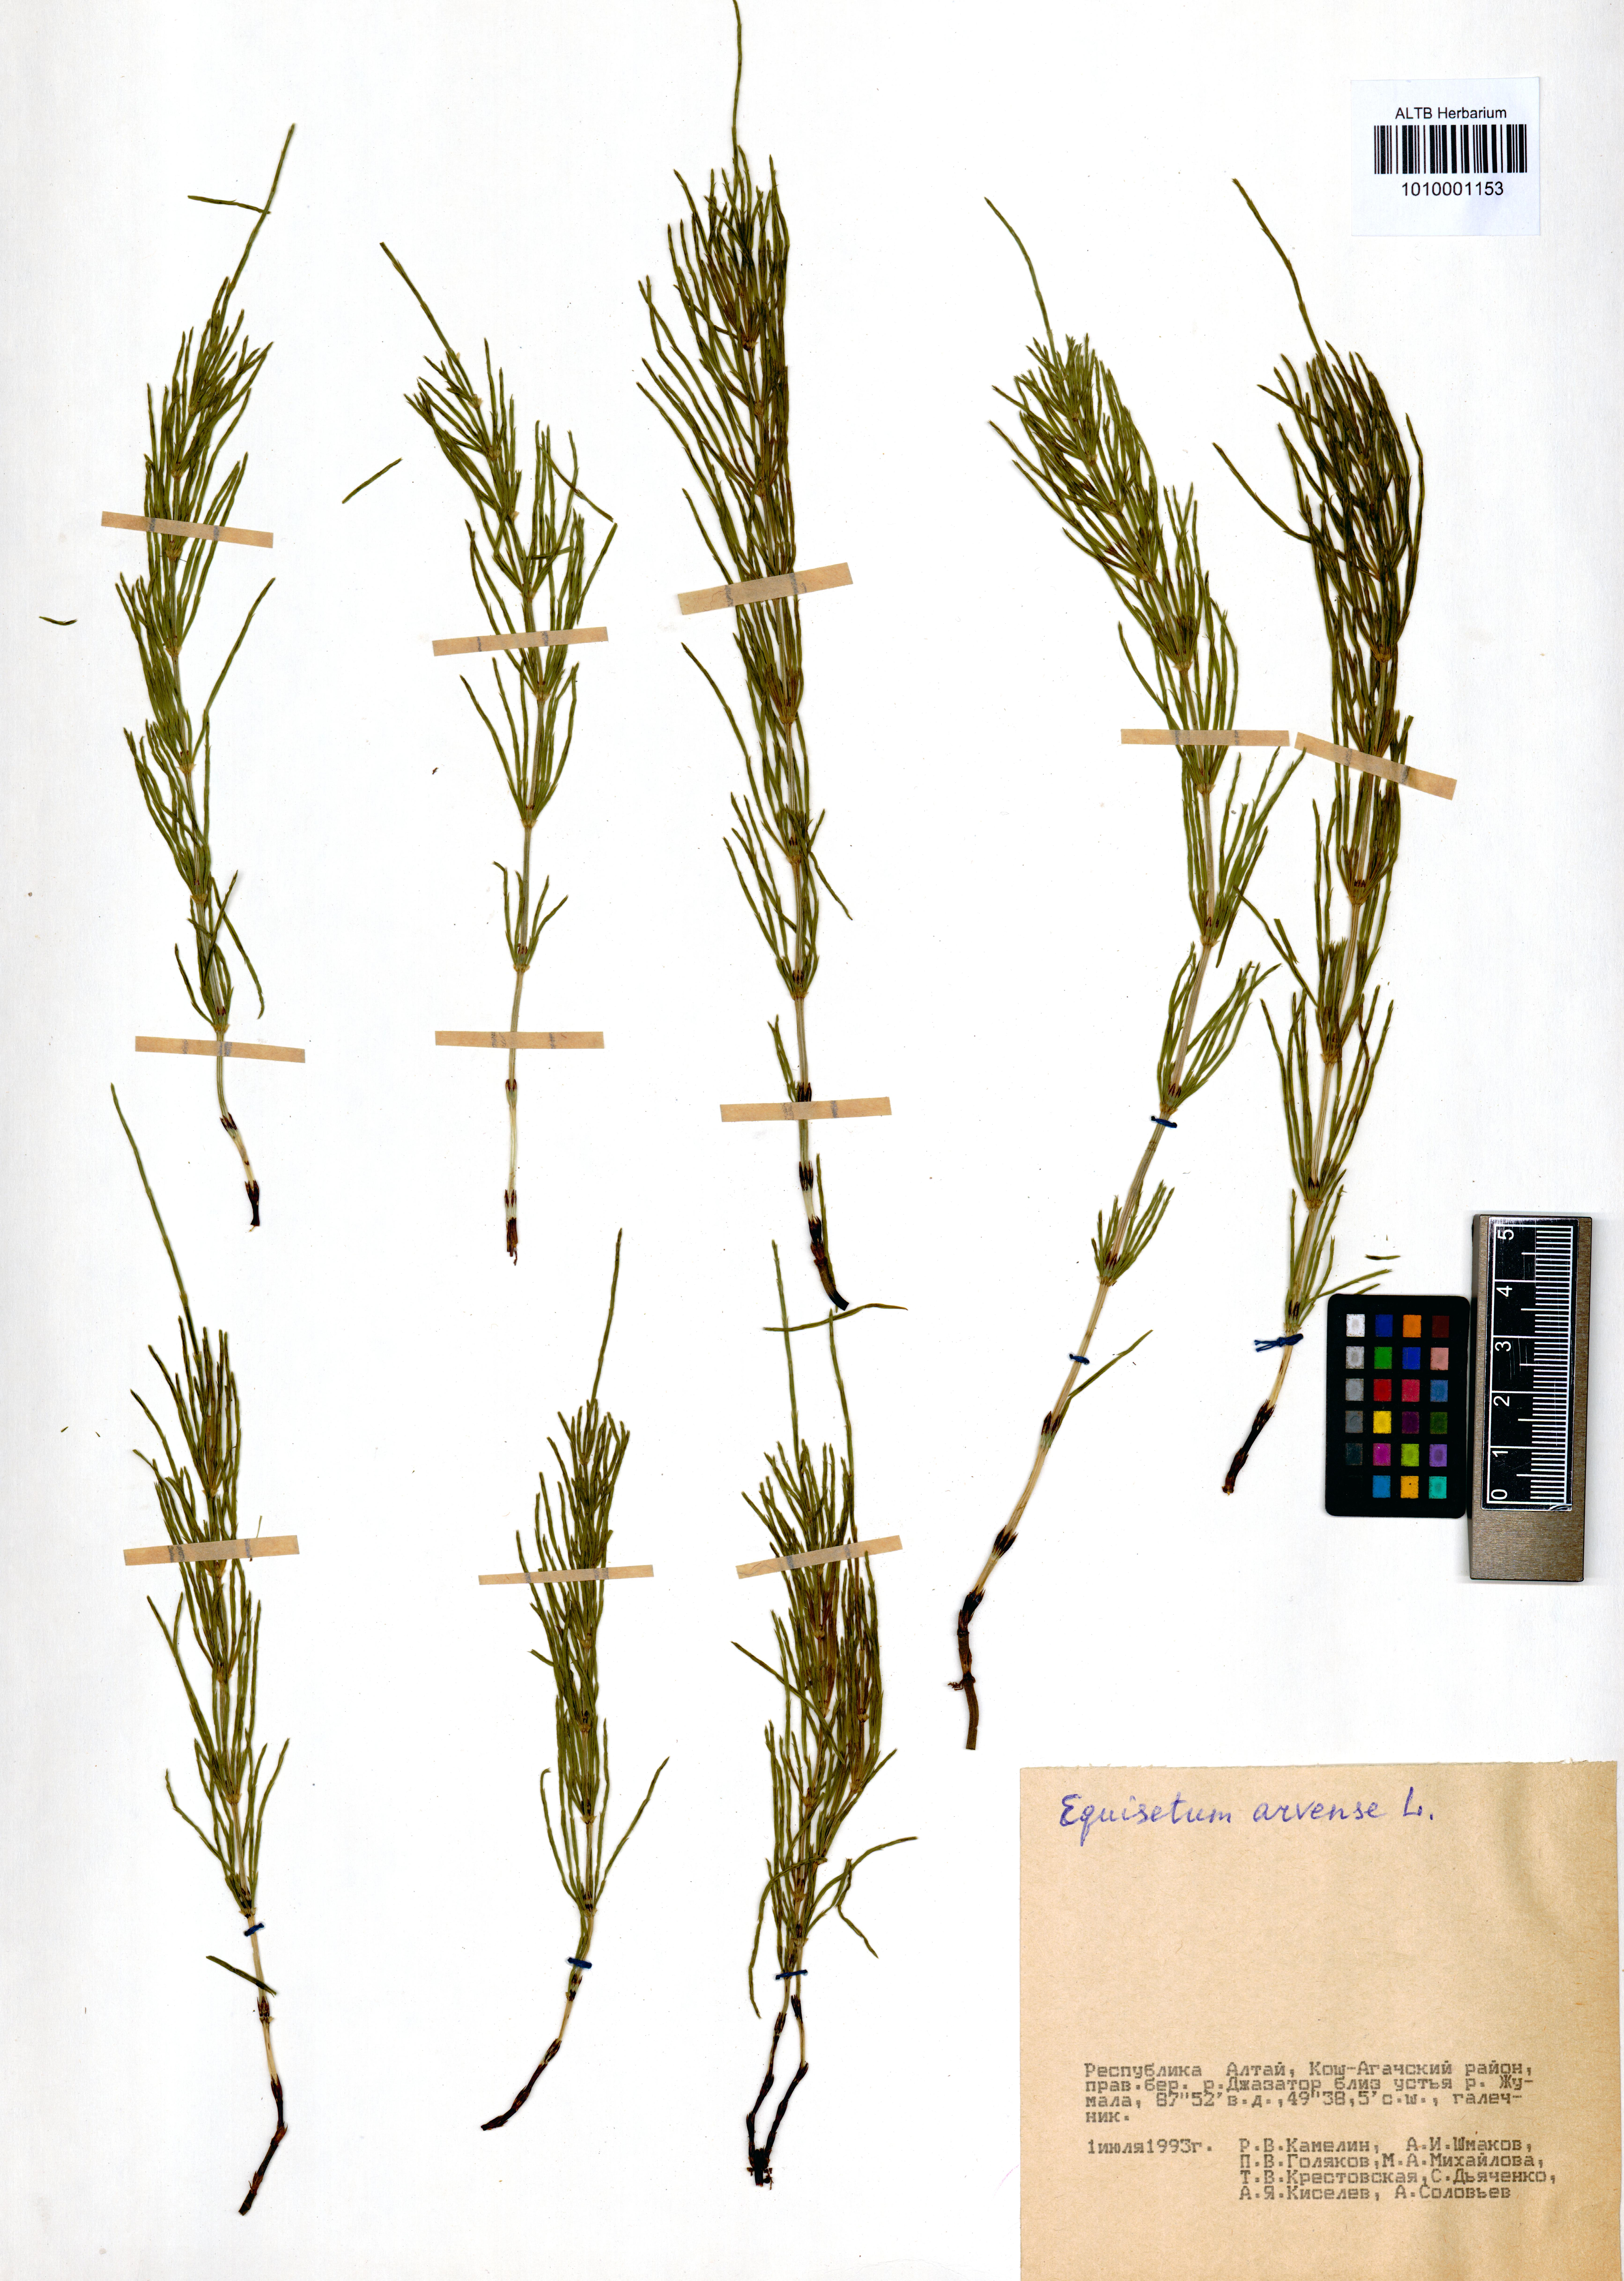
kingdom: Plantae
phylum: Tracheophyta
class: Polypodiopsida
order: Equisetales
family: Equisetaceae
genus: Equisetum
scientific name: Equisetum arvense
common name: Field horsetail
